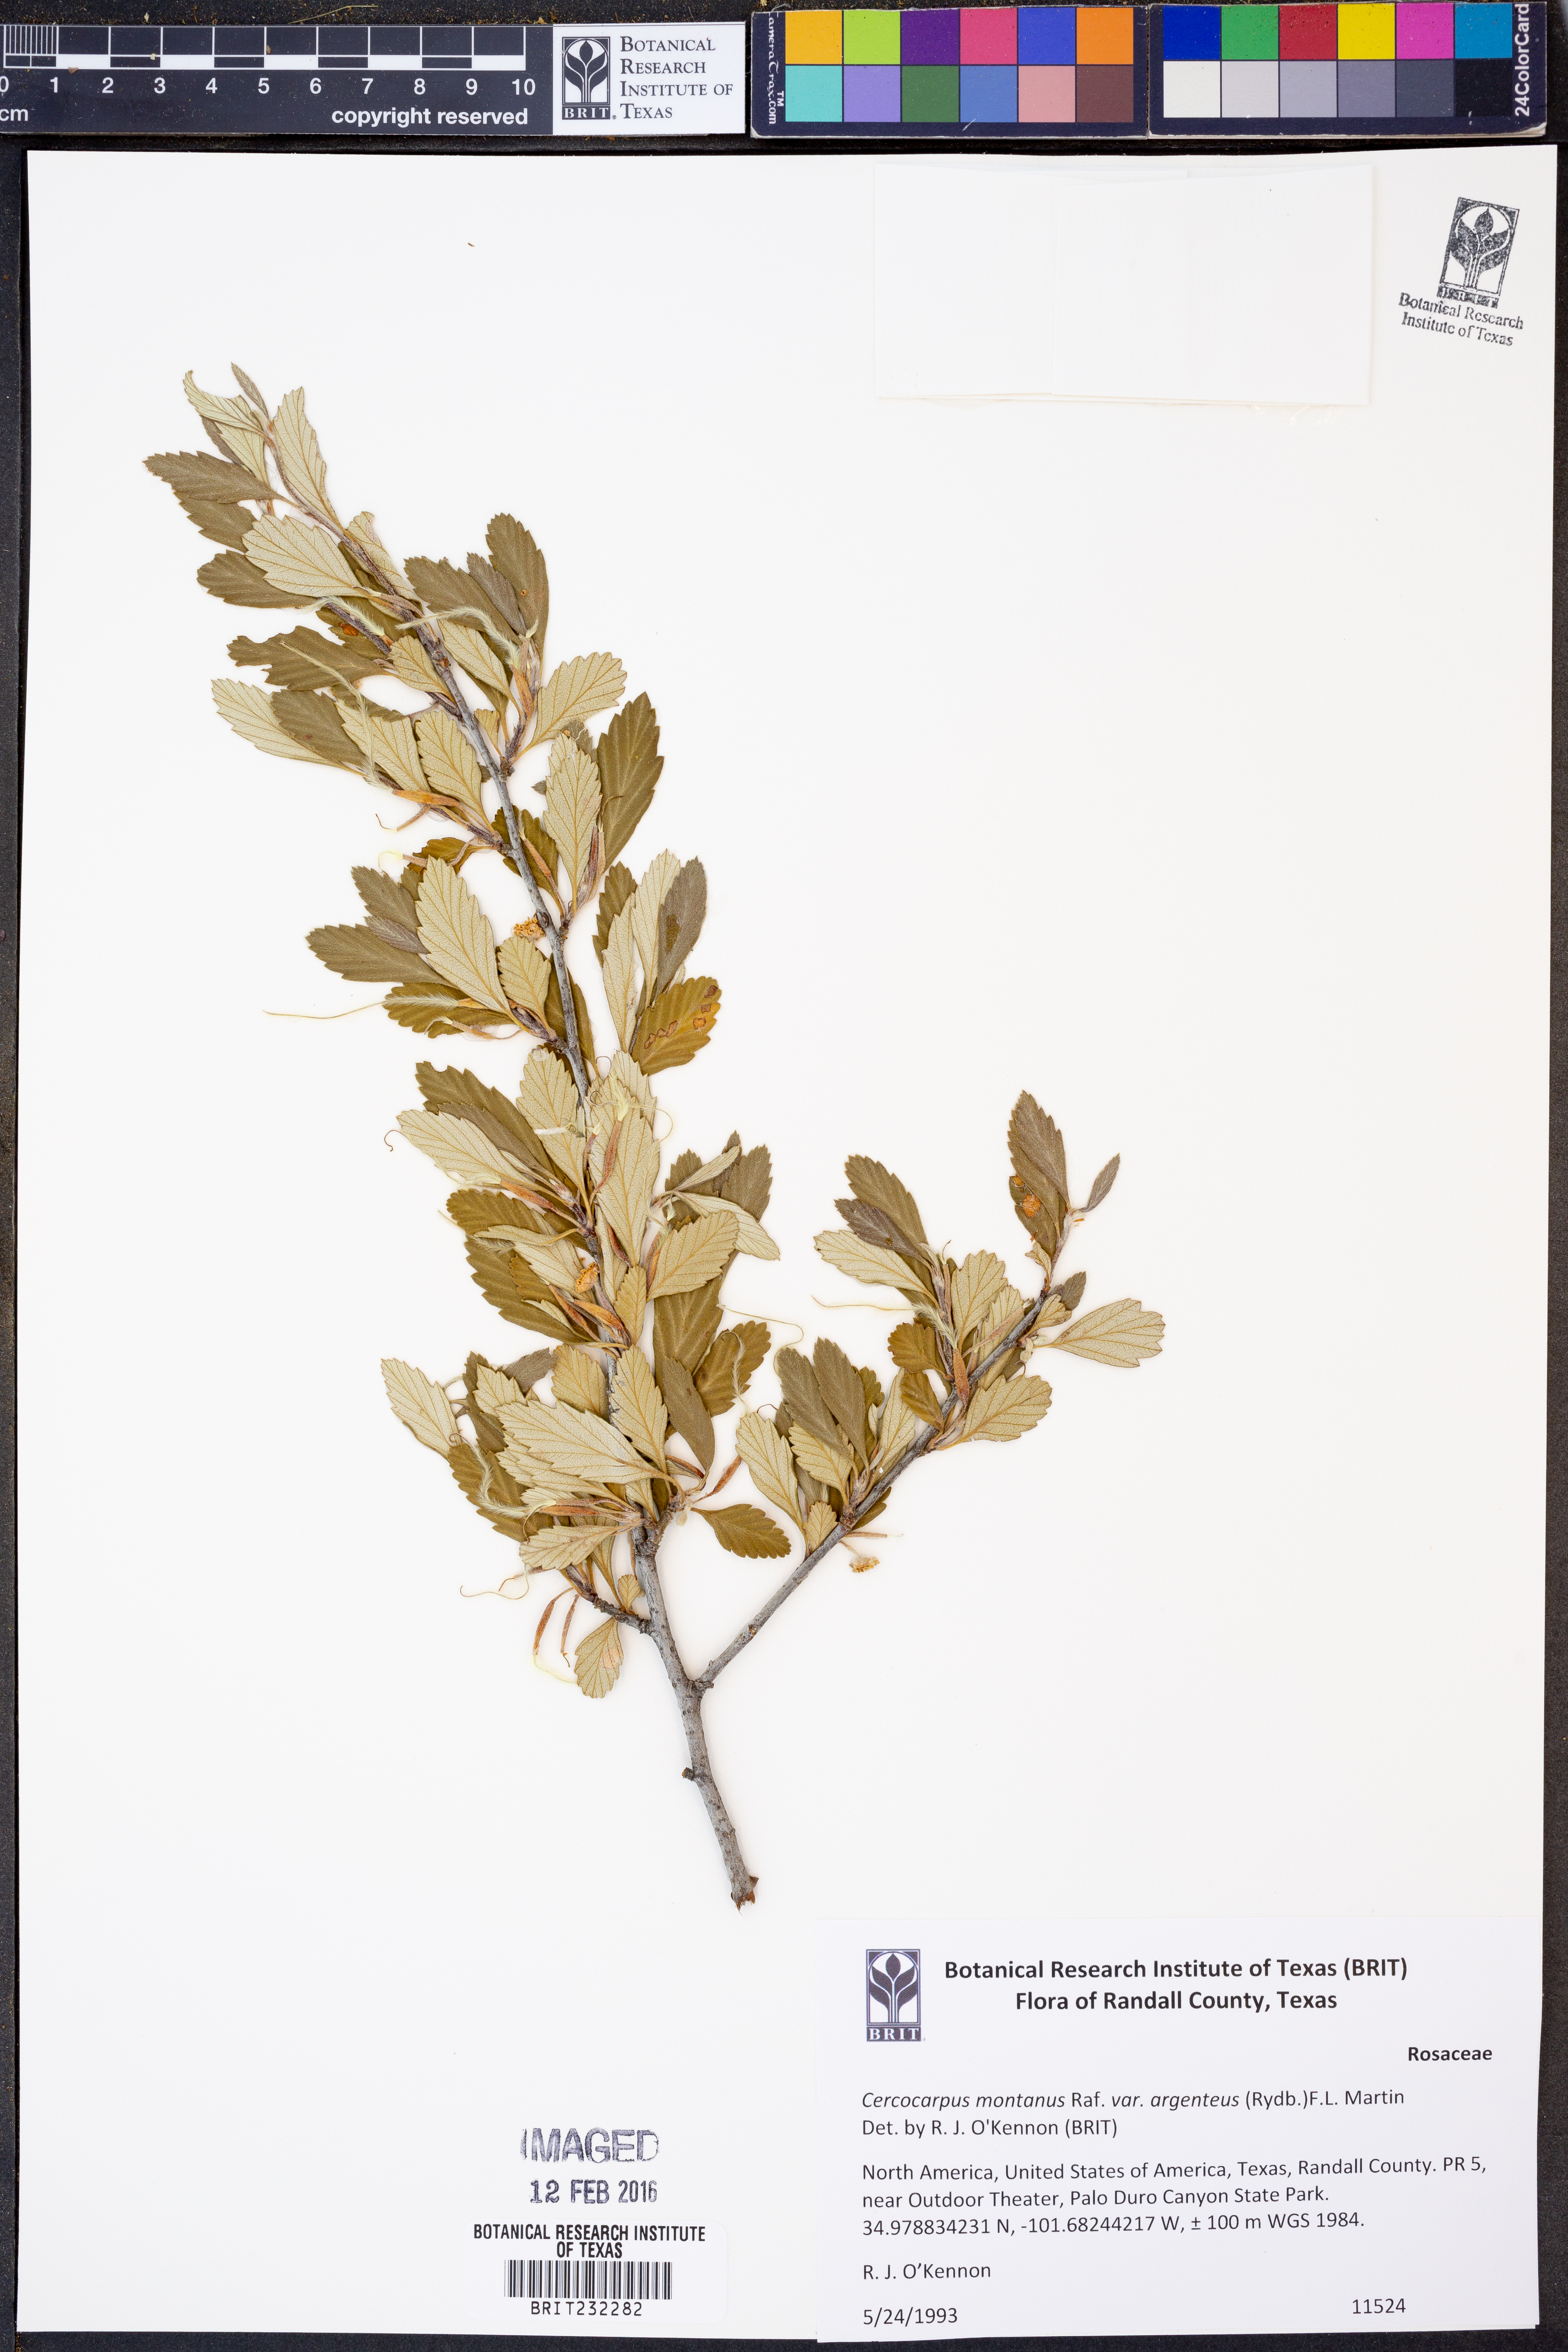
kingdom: Plantae
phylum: Tracheophyta
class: Magnoliopsida
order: Rosales
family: Rosaceae
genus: Cercocarpus
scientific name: Cercocarpus intricatus
